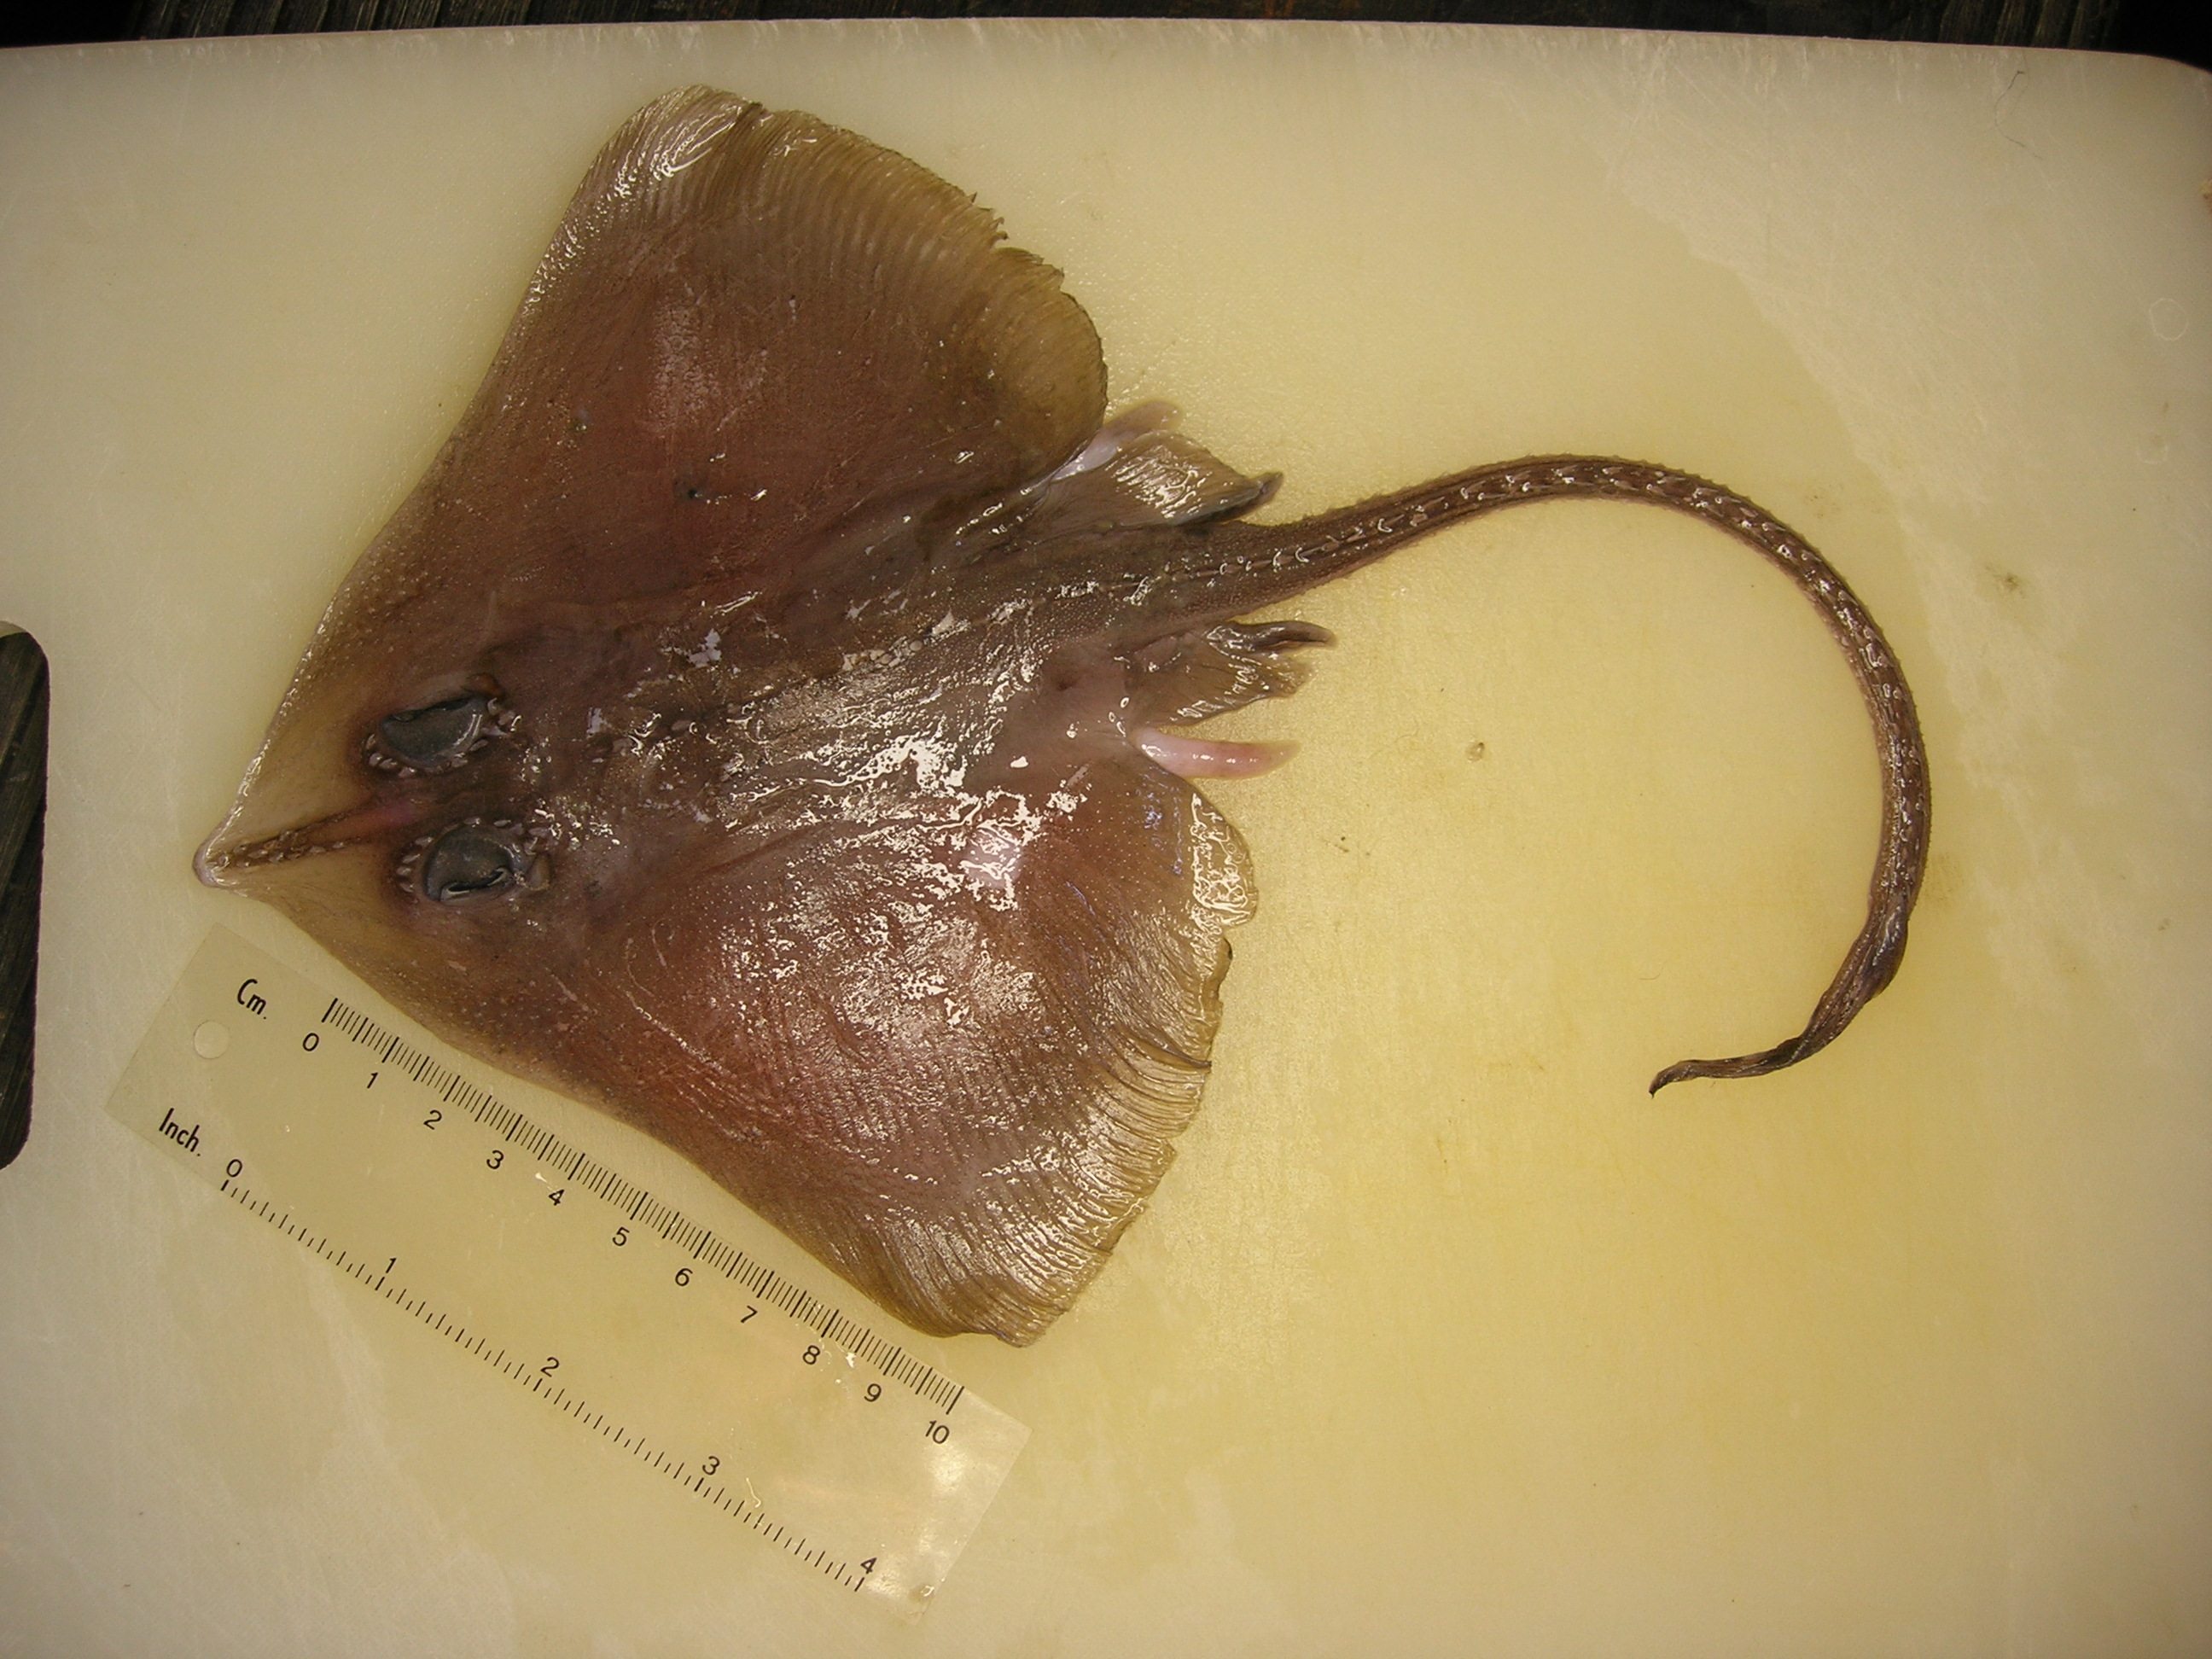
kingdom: Animalia
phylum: Chordata
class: Elasmobranchii
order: Rajiformes
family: Rajidae
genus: Cruriraja
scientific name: Cruriraja parcomaculata
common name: Triangular legskate
